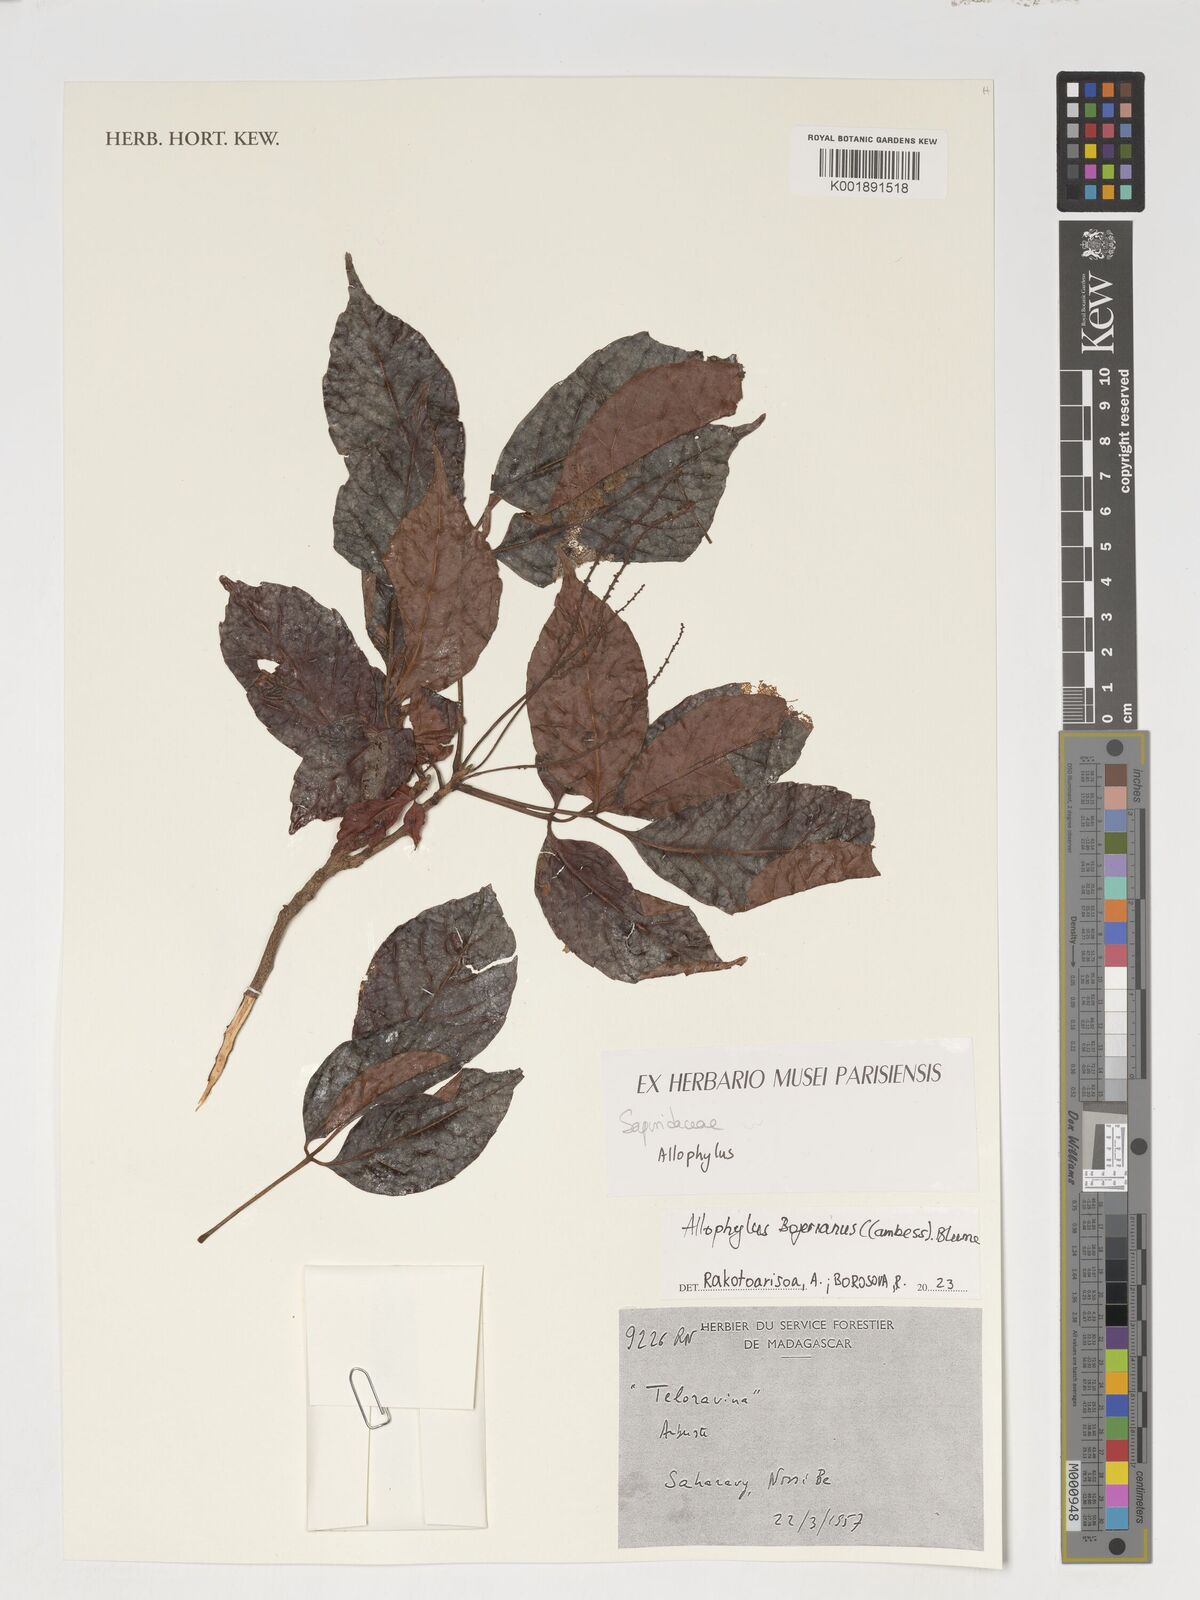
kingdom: Plantae
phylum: Tracheophyta
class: Magnoliopsida
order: Sapindales
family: Sapindaceae
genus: Allophylus
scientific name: Allophylus bojerianus
